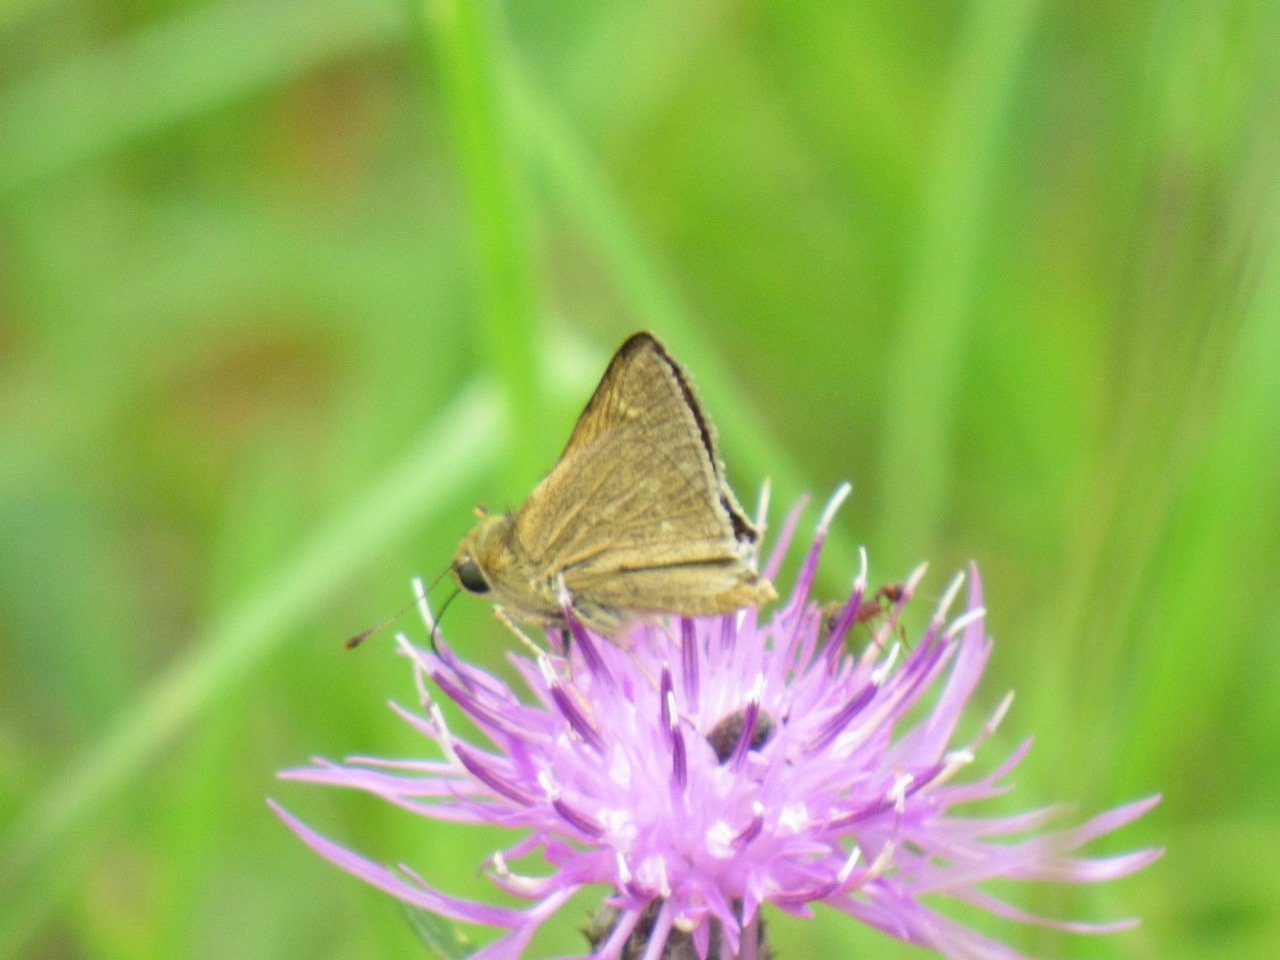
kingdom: Animalia
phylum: Arthropoda
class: Insecta
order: Lepidoptera
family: Hesperiidae
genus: Polites
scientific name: Polites themistocles
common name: Tawny-edged Skipper
